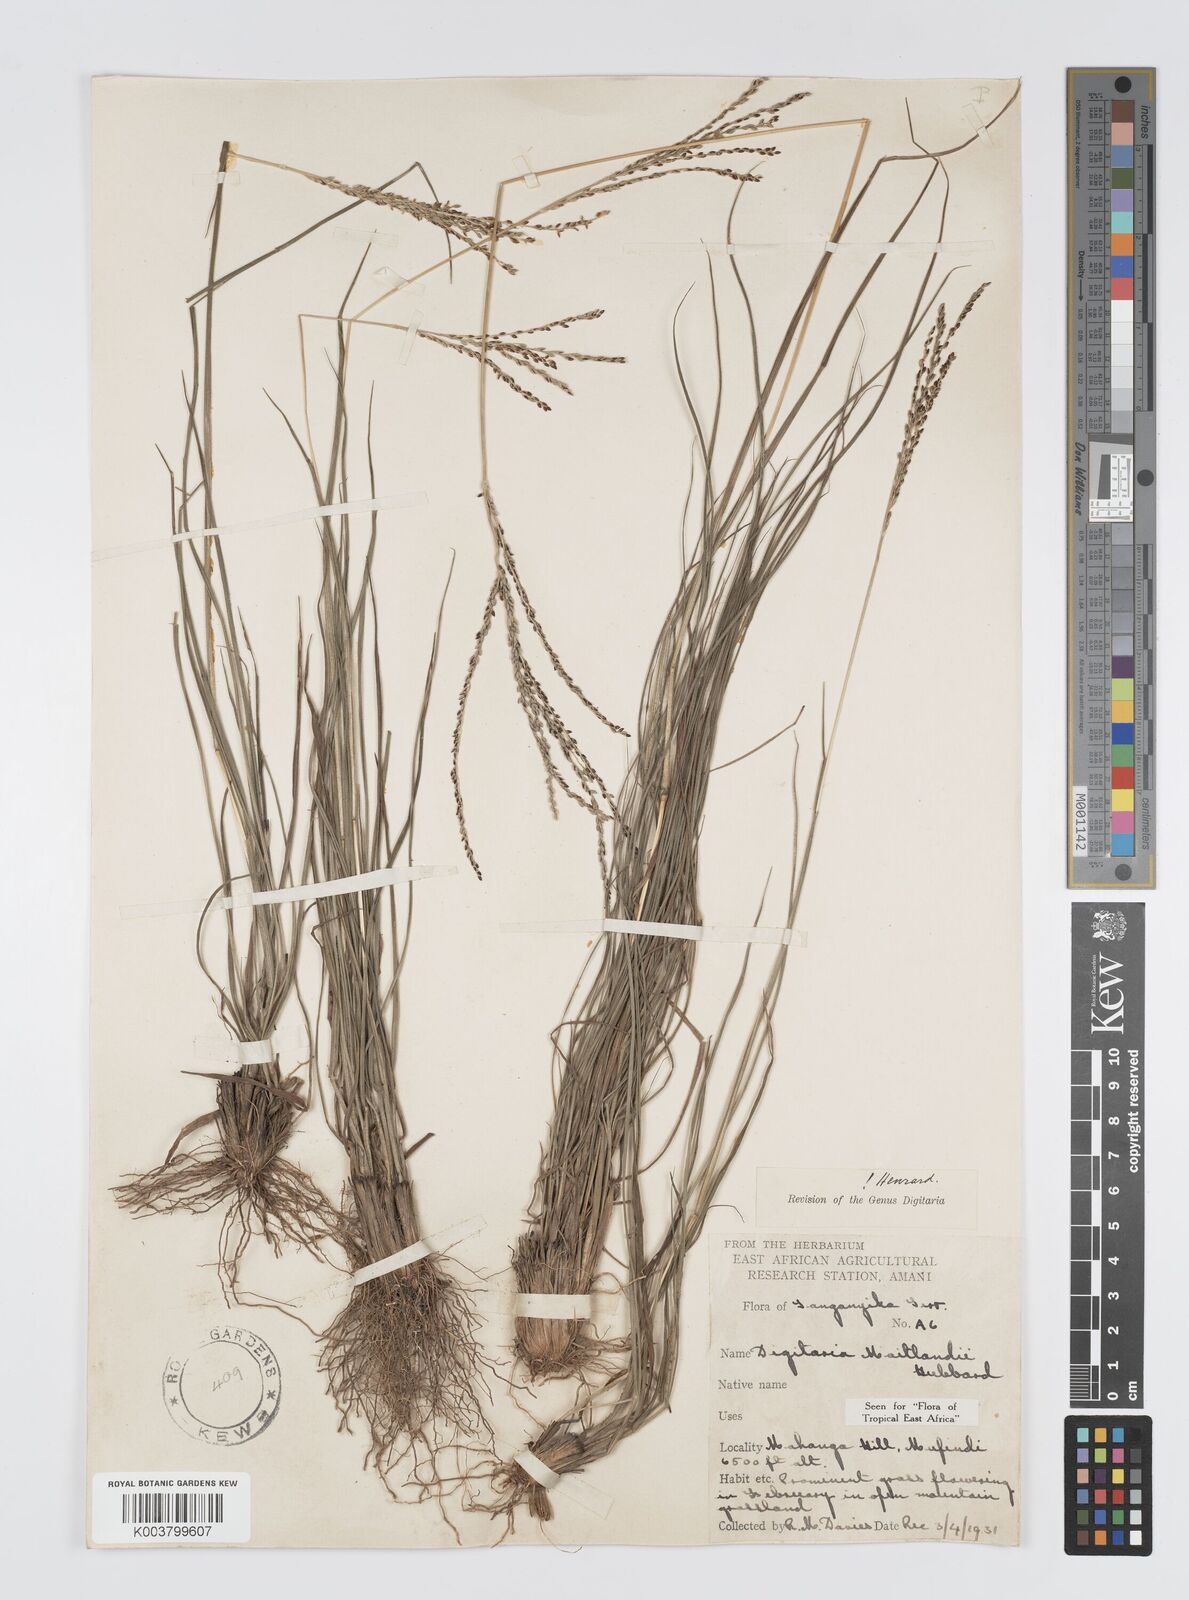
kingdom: Plantae
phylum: Tracheophyta
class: Liliopsida
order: Poales
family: Poaceae
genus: Digitaria
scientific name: Digitaria maitlandii
